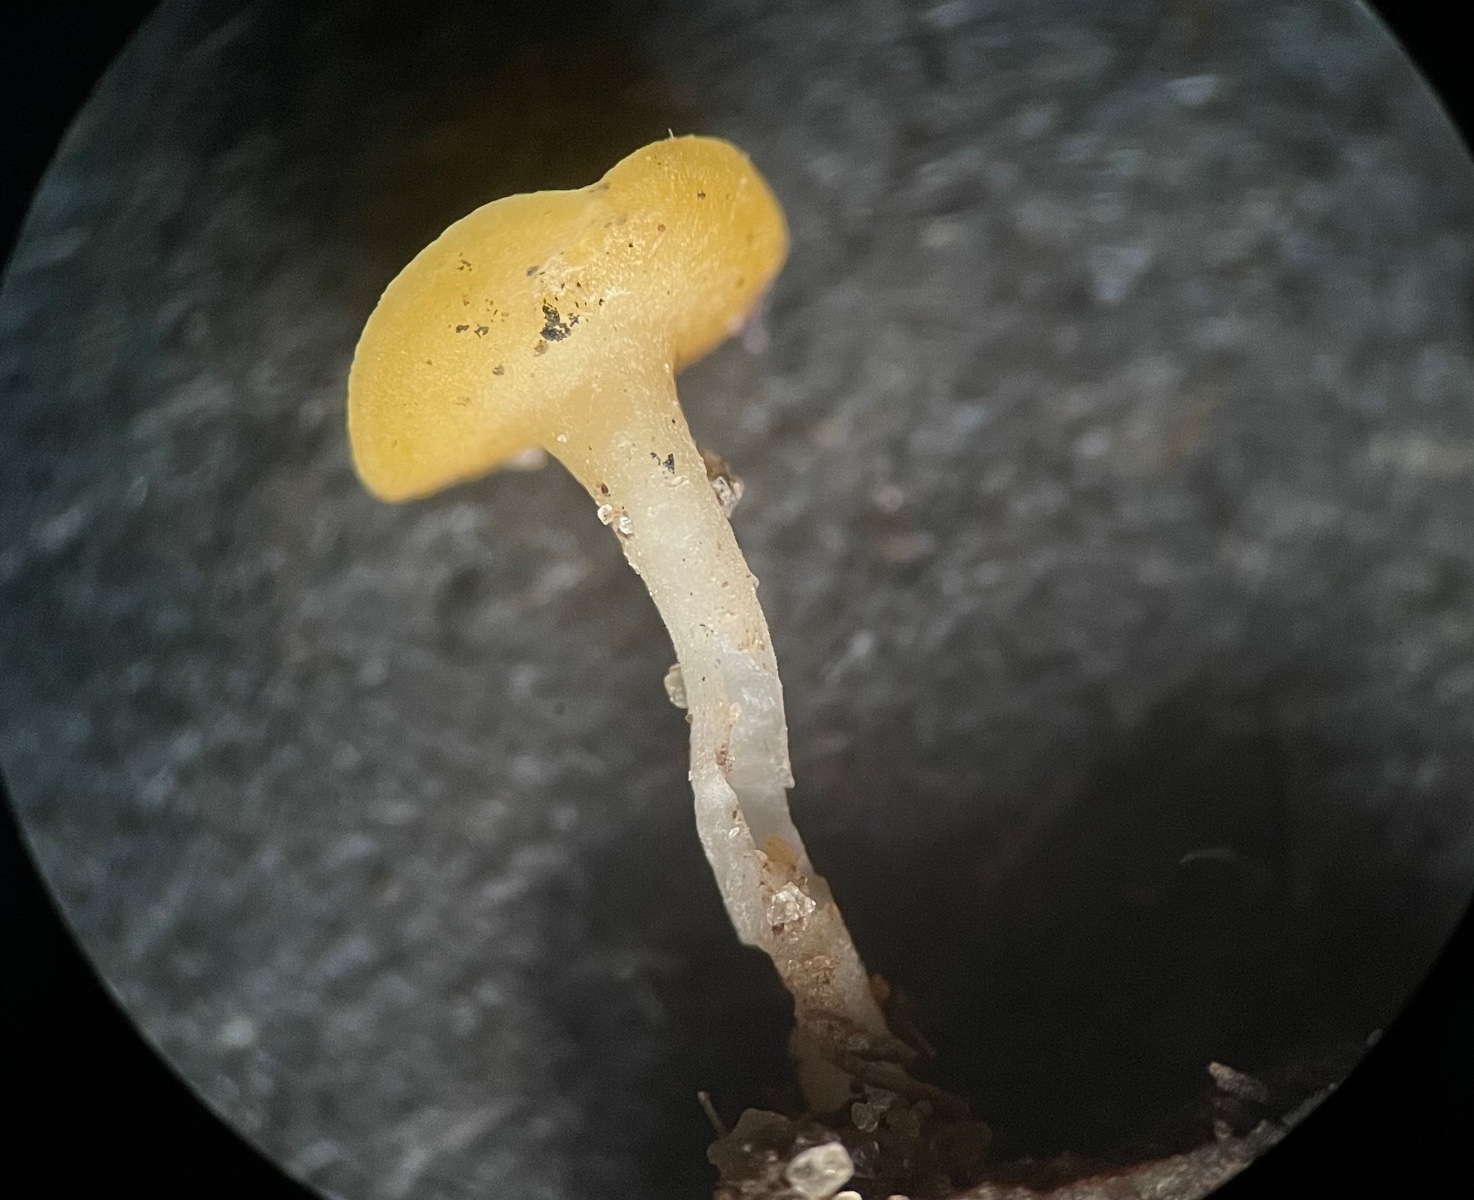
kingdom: Fungi
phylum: Ascomycota
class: Leotiomycetes
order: Helotiales
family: Helotiaceae
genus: Hymenoscyphus
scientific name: Hymenoscyphus
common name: stilkskive
